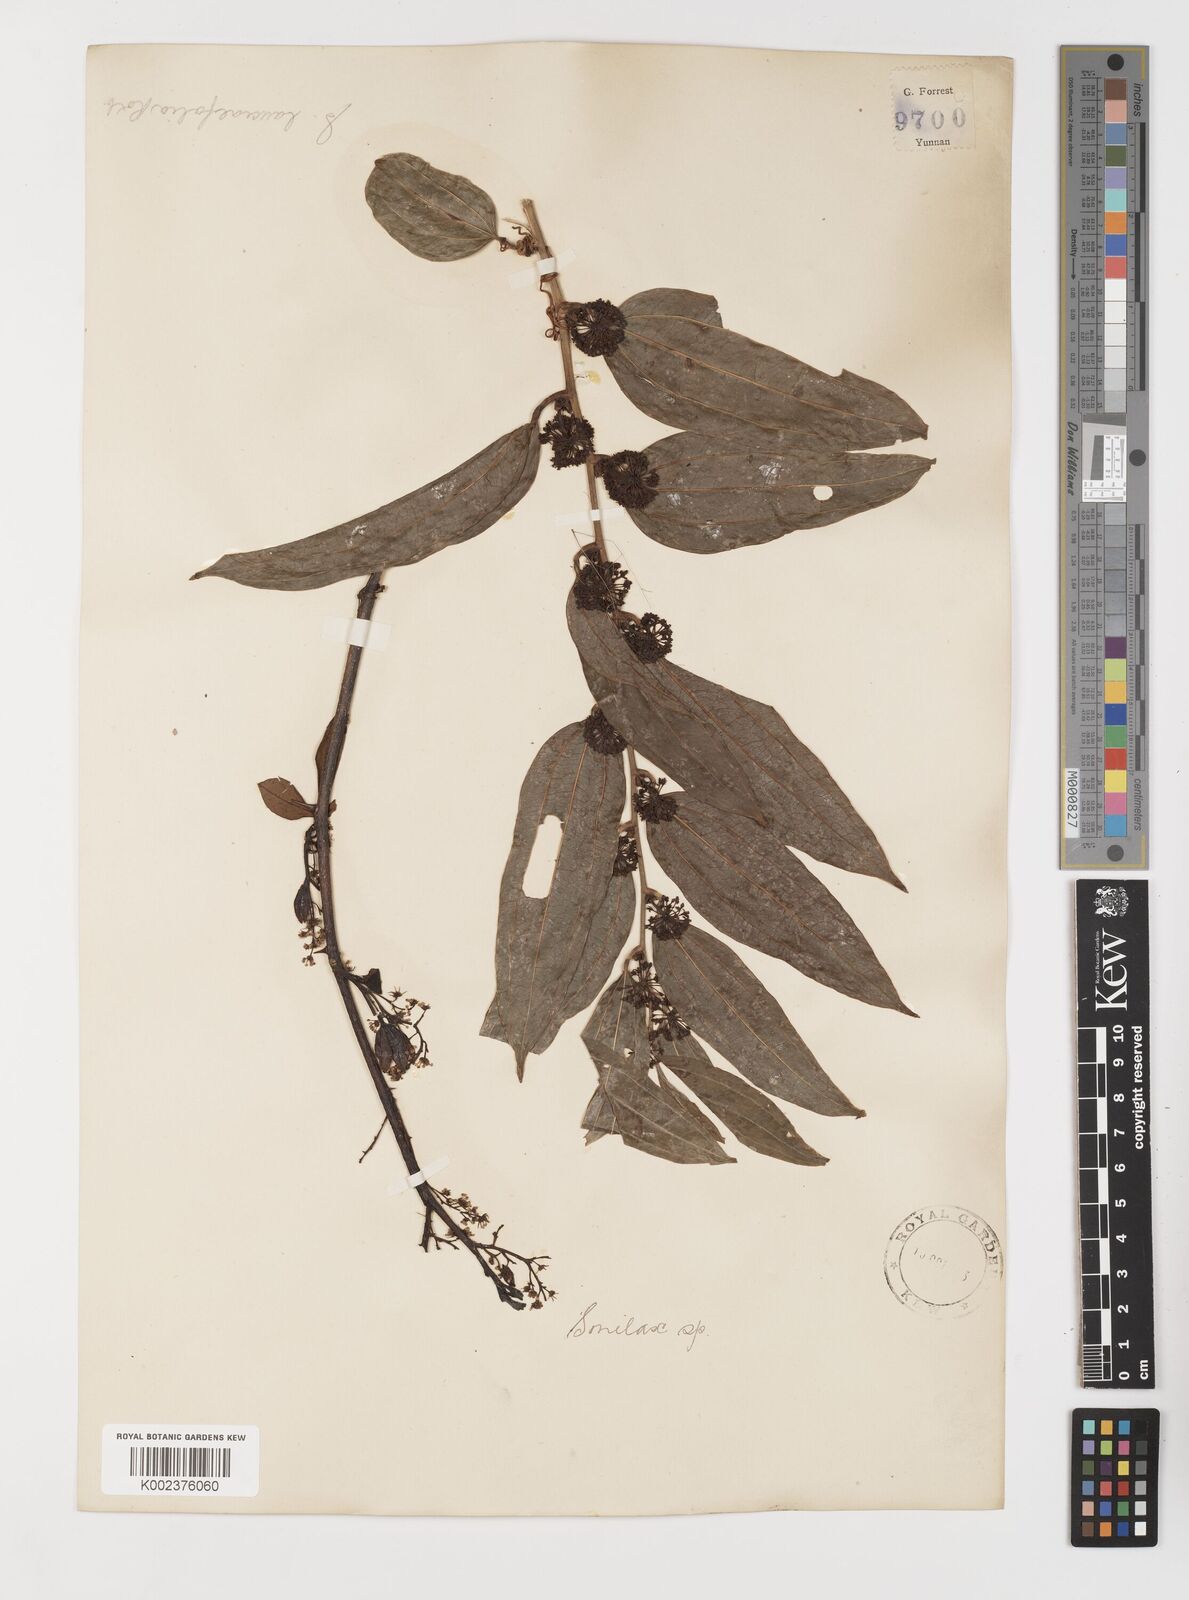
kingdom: Plantae
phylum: Tracheophyta
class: Liliopsida
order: Liliales
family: Smilacaceae
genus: Smilax
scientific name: Smilax lanceifolia
